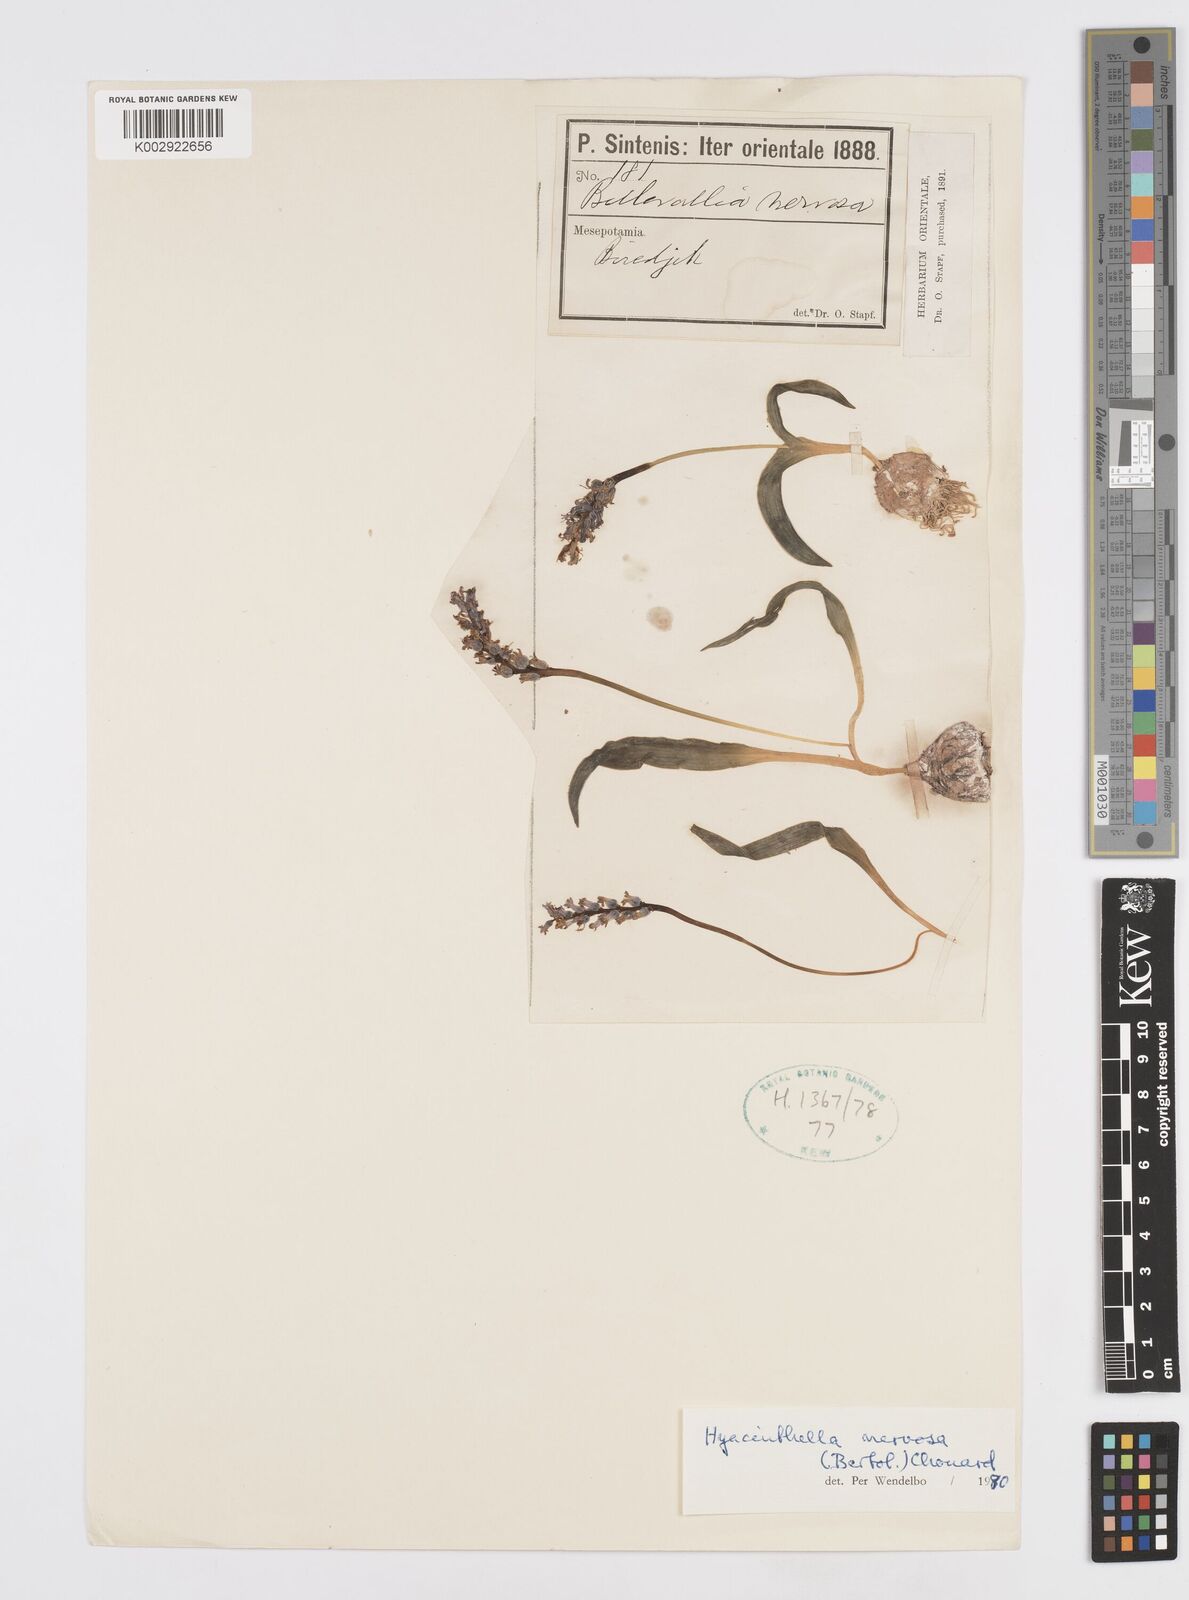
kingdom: Plantae
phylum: Tracheophyta
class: Liliopsida
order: Asparagales
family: Asparagaceae
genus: Hyacinthella
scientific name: Hyacinthella nervosa
